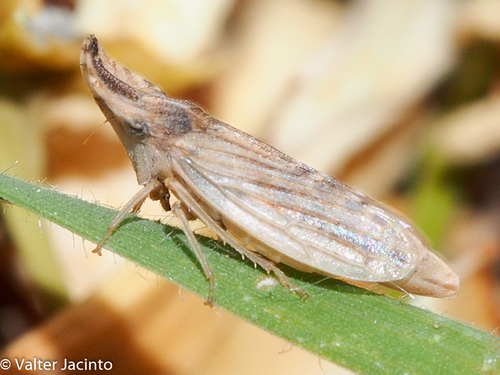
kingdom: Animalia
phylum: Arthropoda
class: Insecta
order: Hemiptera
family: Cicadellidae
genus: Eupelix
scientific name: Eupelix cuspidata
